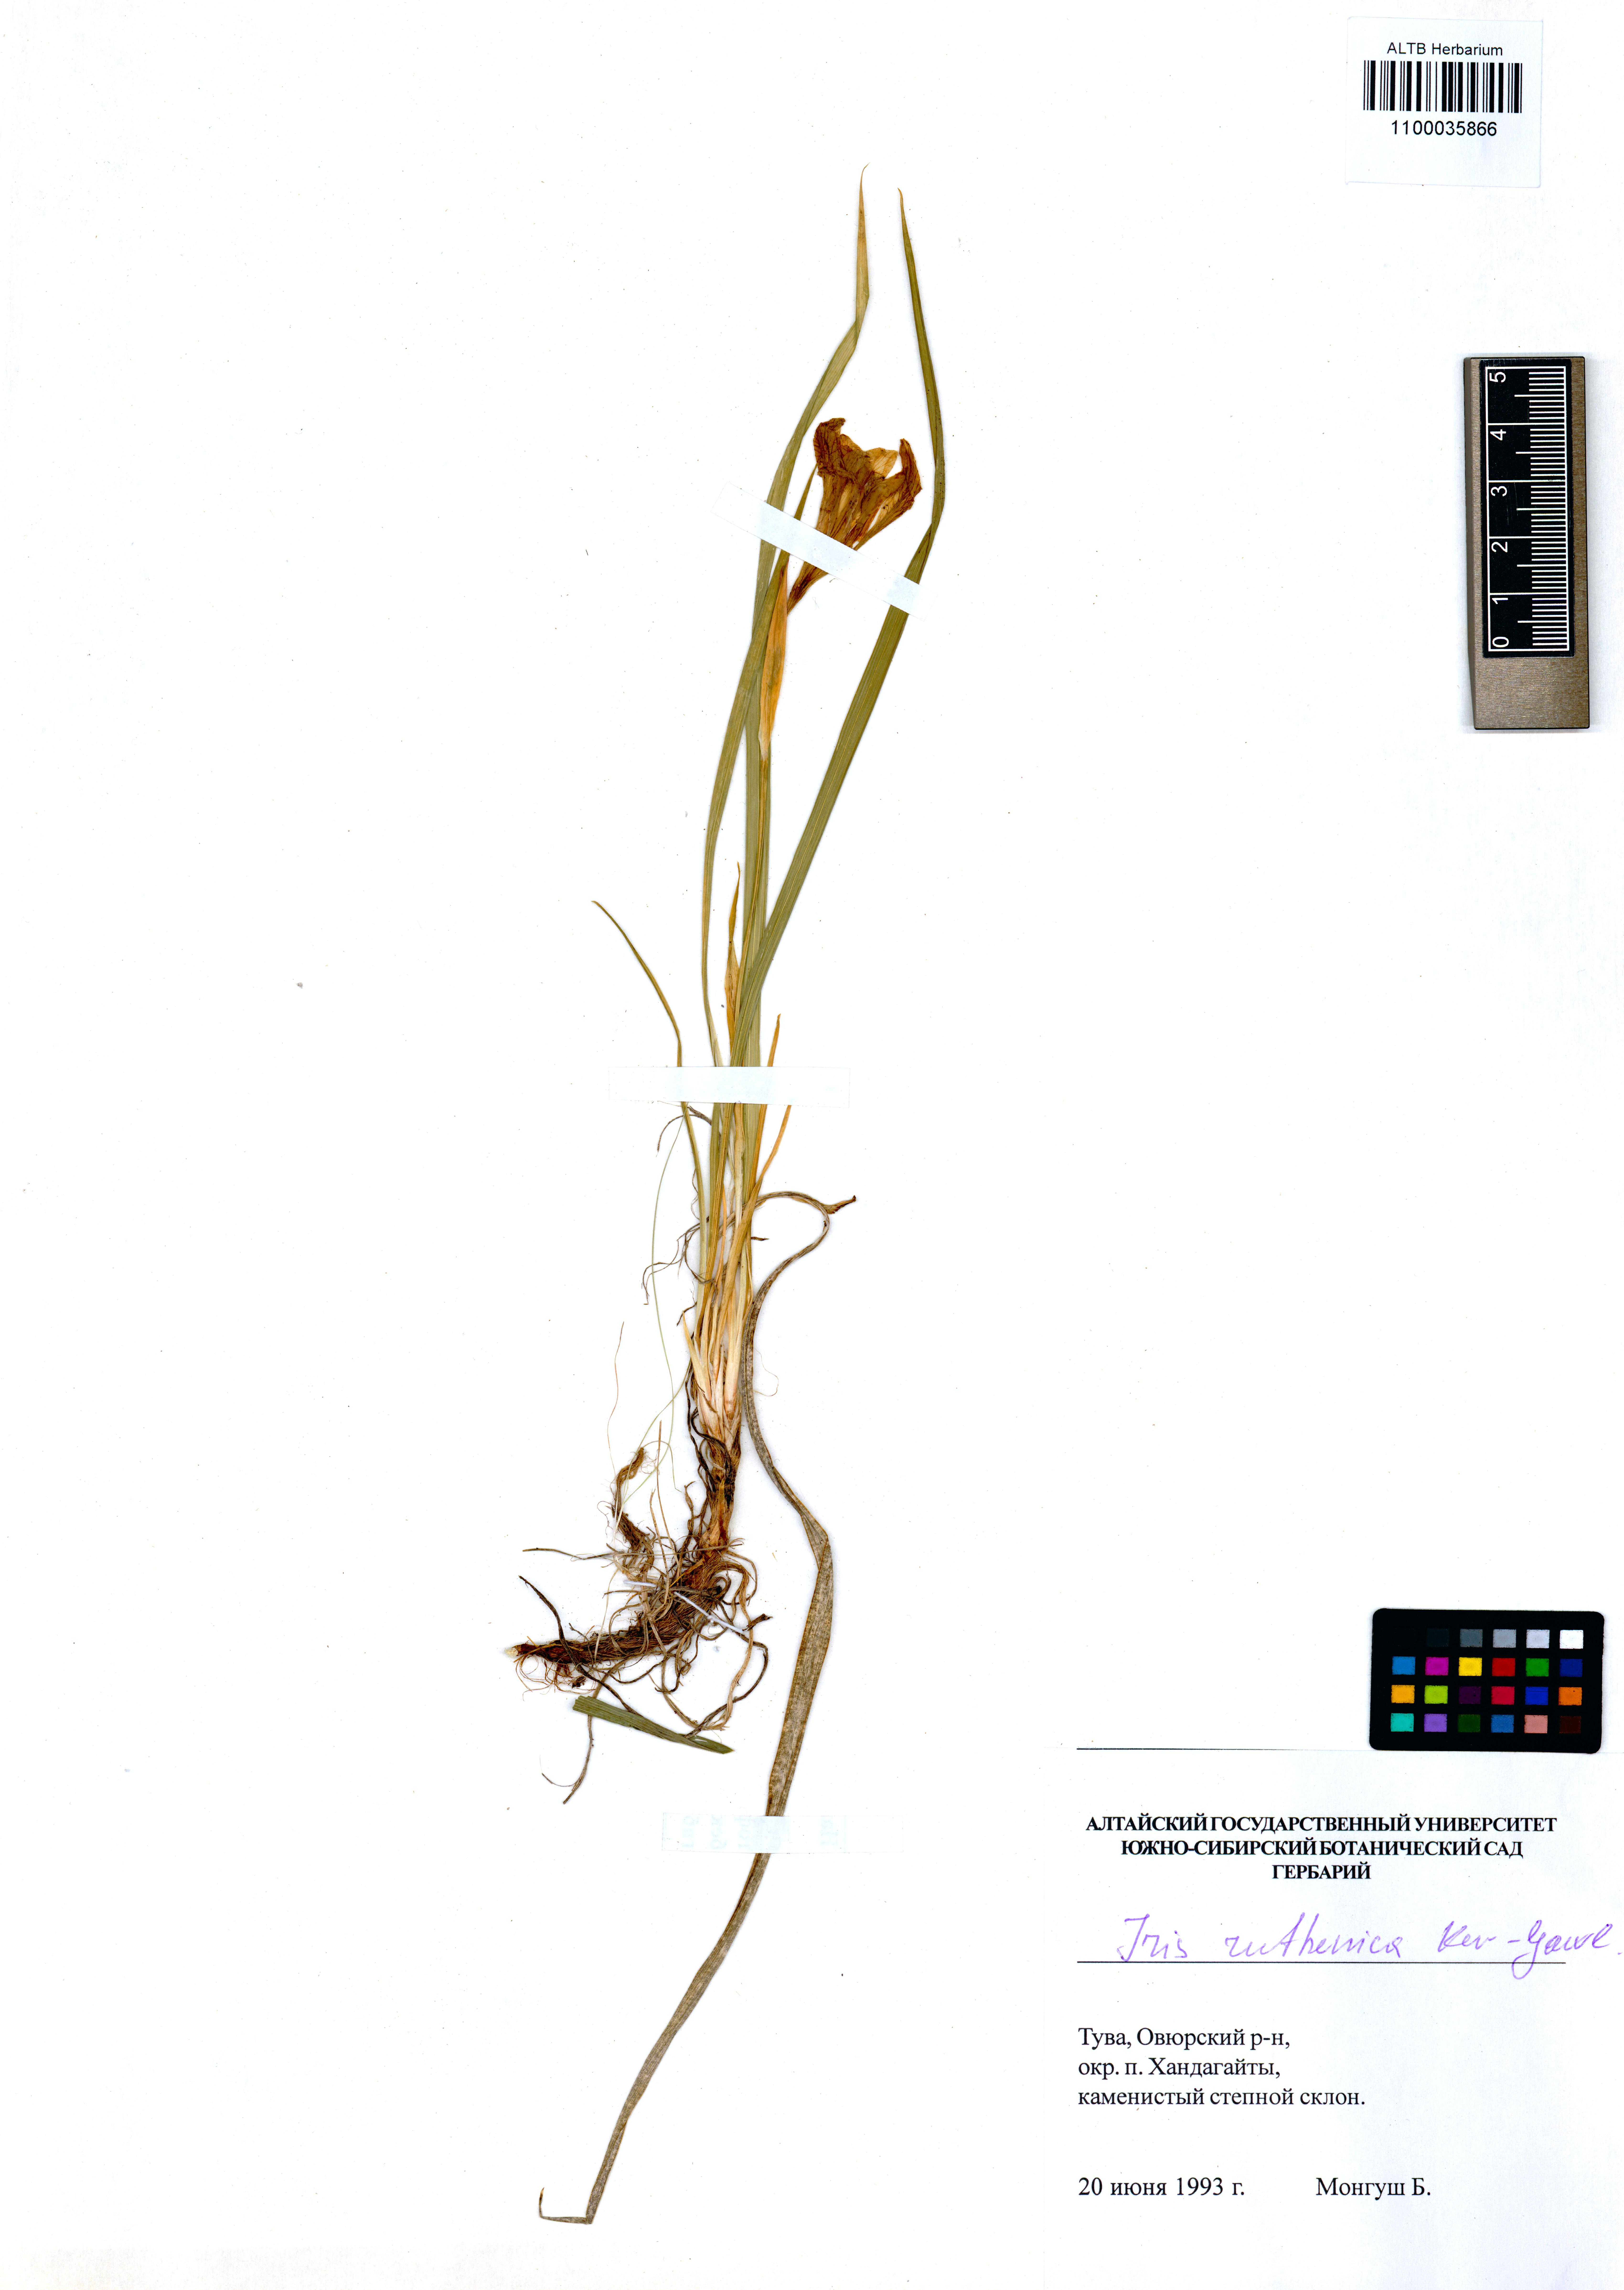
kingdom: Plantae
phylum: Tracheophyta
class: Liliopsida
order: Asparagales
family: Iridaceae
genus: Iris
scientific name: Iris ruthenica
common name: Purple-bract iris
